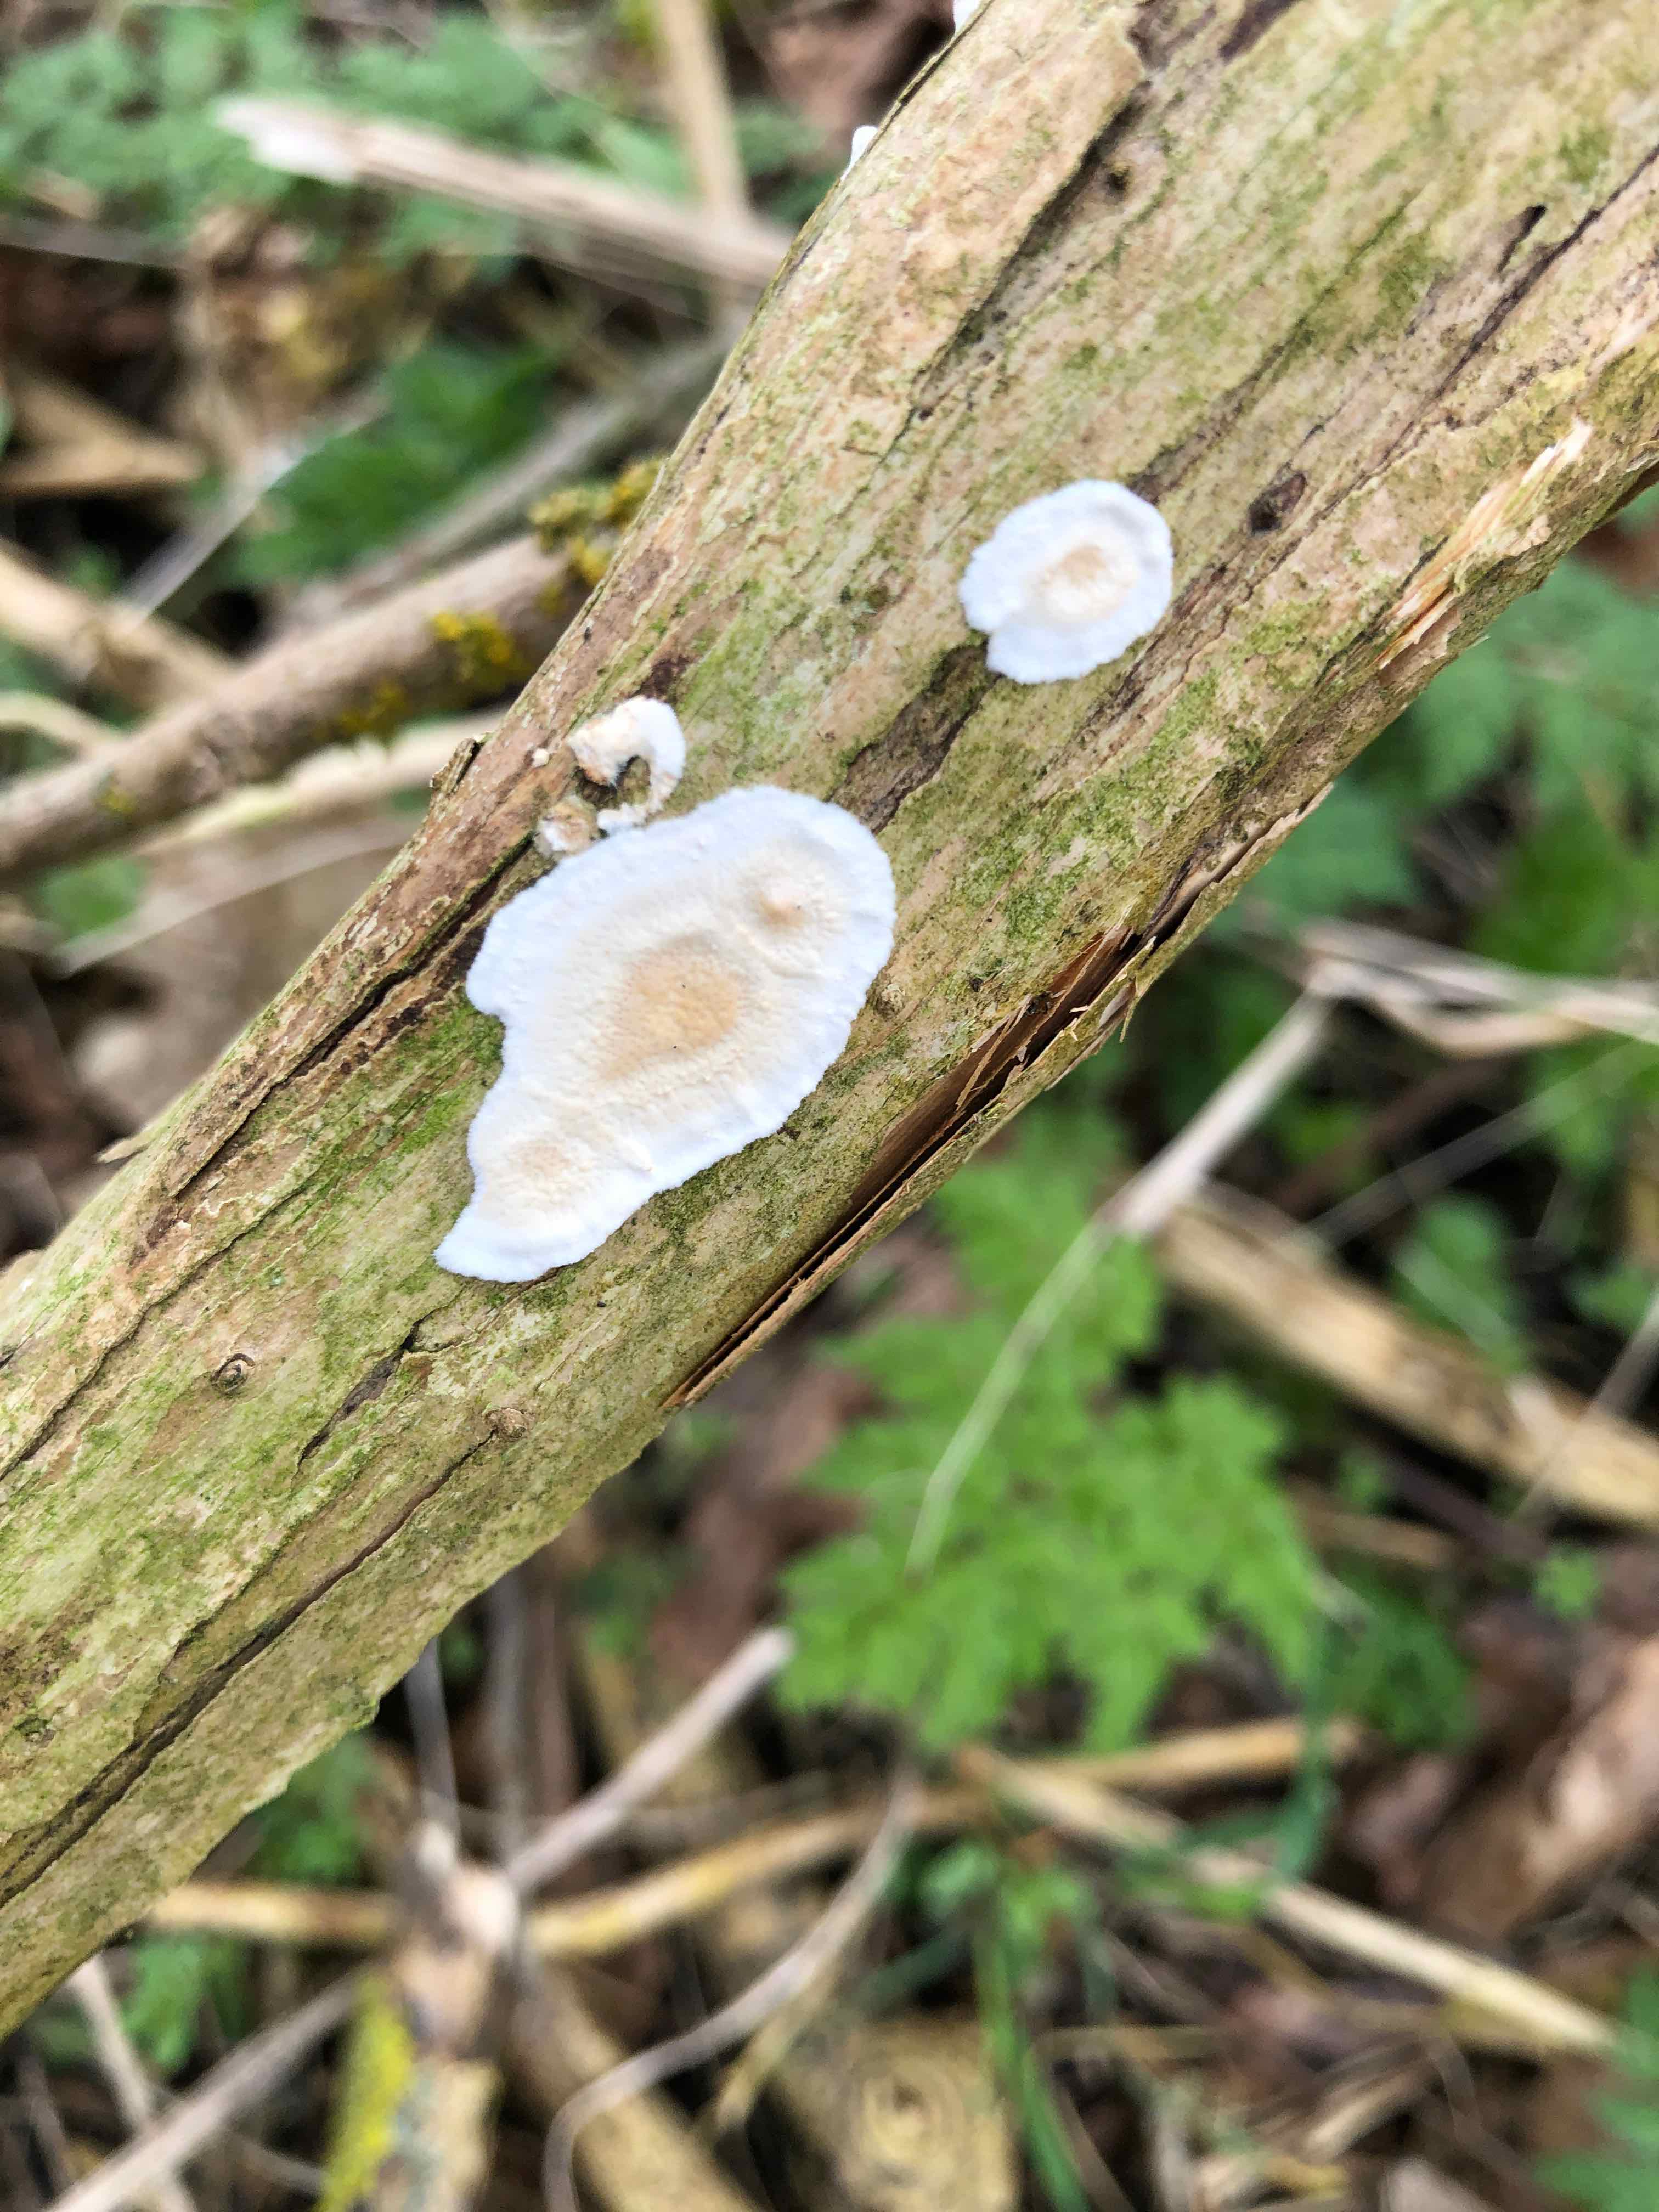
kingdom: Fungi
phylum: Basidiomycota
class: Agaricomycetes
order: Polyporales
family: Irpicaceae
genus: Byssomerulius
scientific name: Byssomerulius corium
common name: læder-åresvamp
